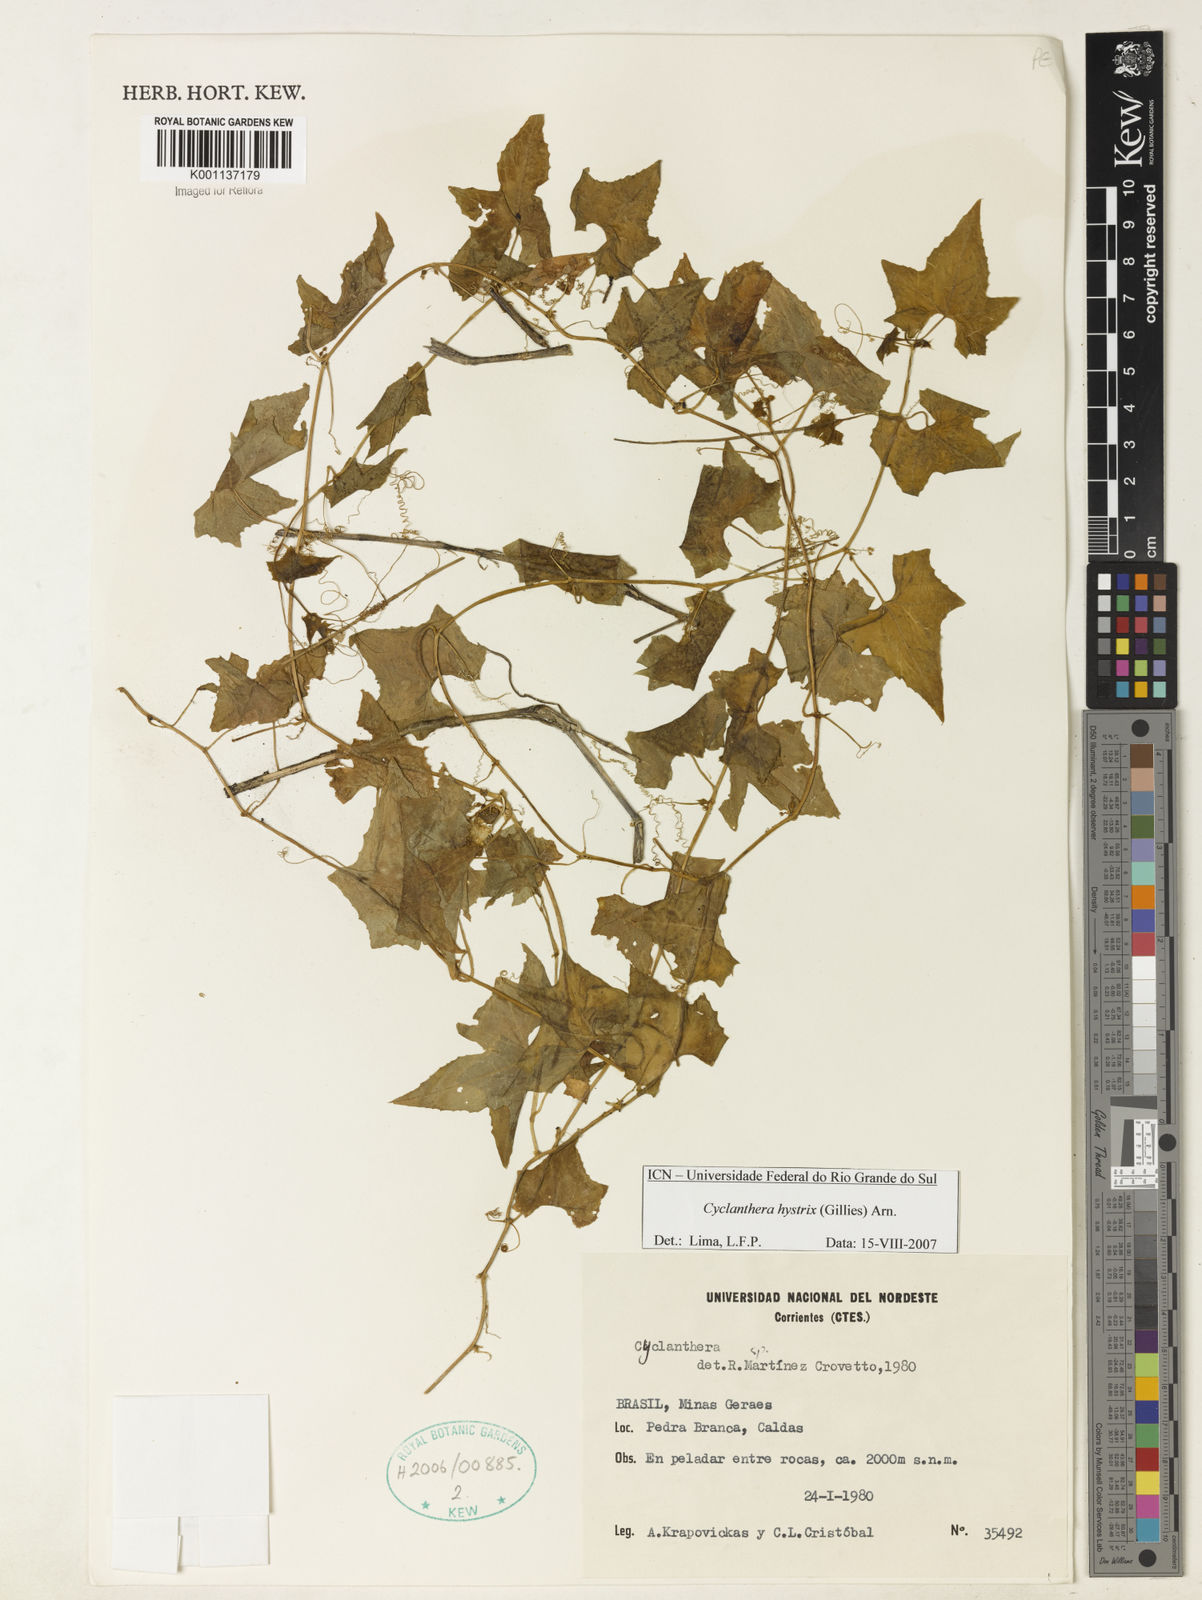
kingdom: Plantae
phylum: Tracheophyta
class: Magnoliopsida
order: Cucurbitales
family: Cucurbitaceae
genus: Cyclanthera
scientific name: Cyclanthera hystrix
